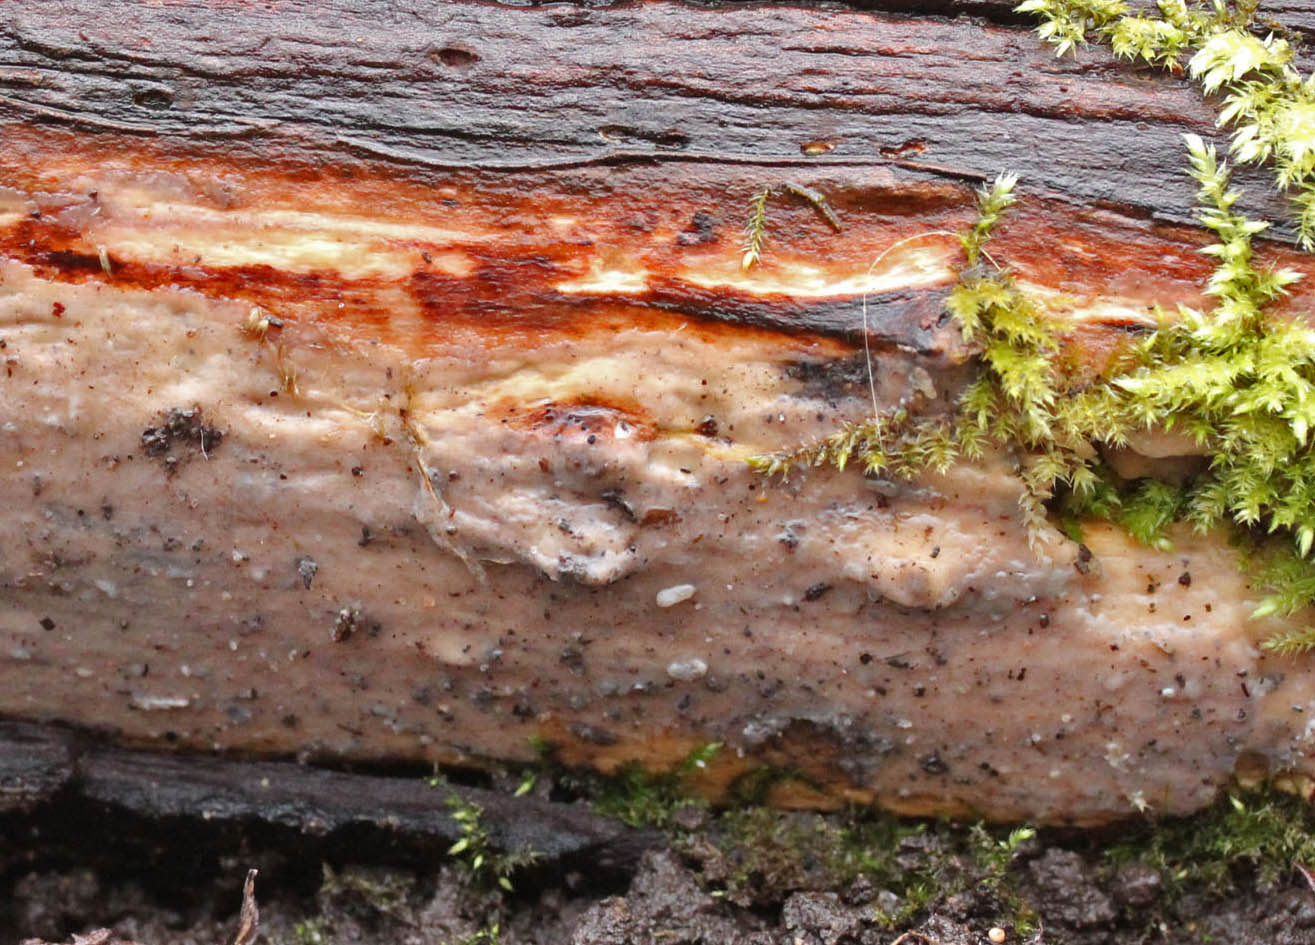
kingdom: Fungi
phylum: Basidiomycota
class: Agaricomycetes
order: Agaricales
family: Radulomycetaceae
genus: Radulomyces
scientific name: Radulomyces confluens
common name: glat naftalinskind
